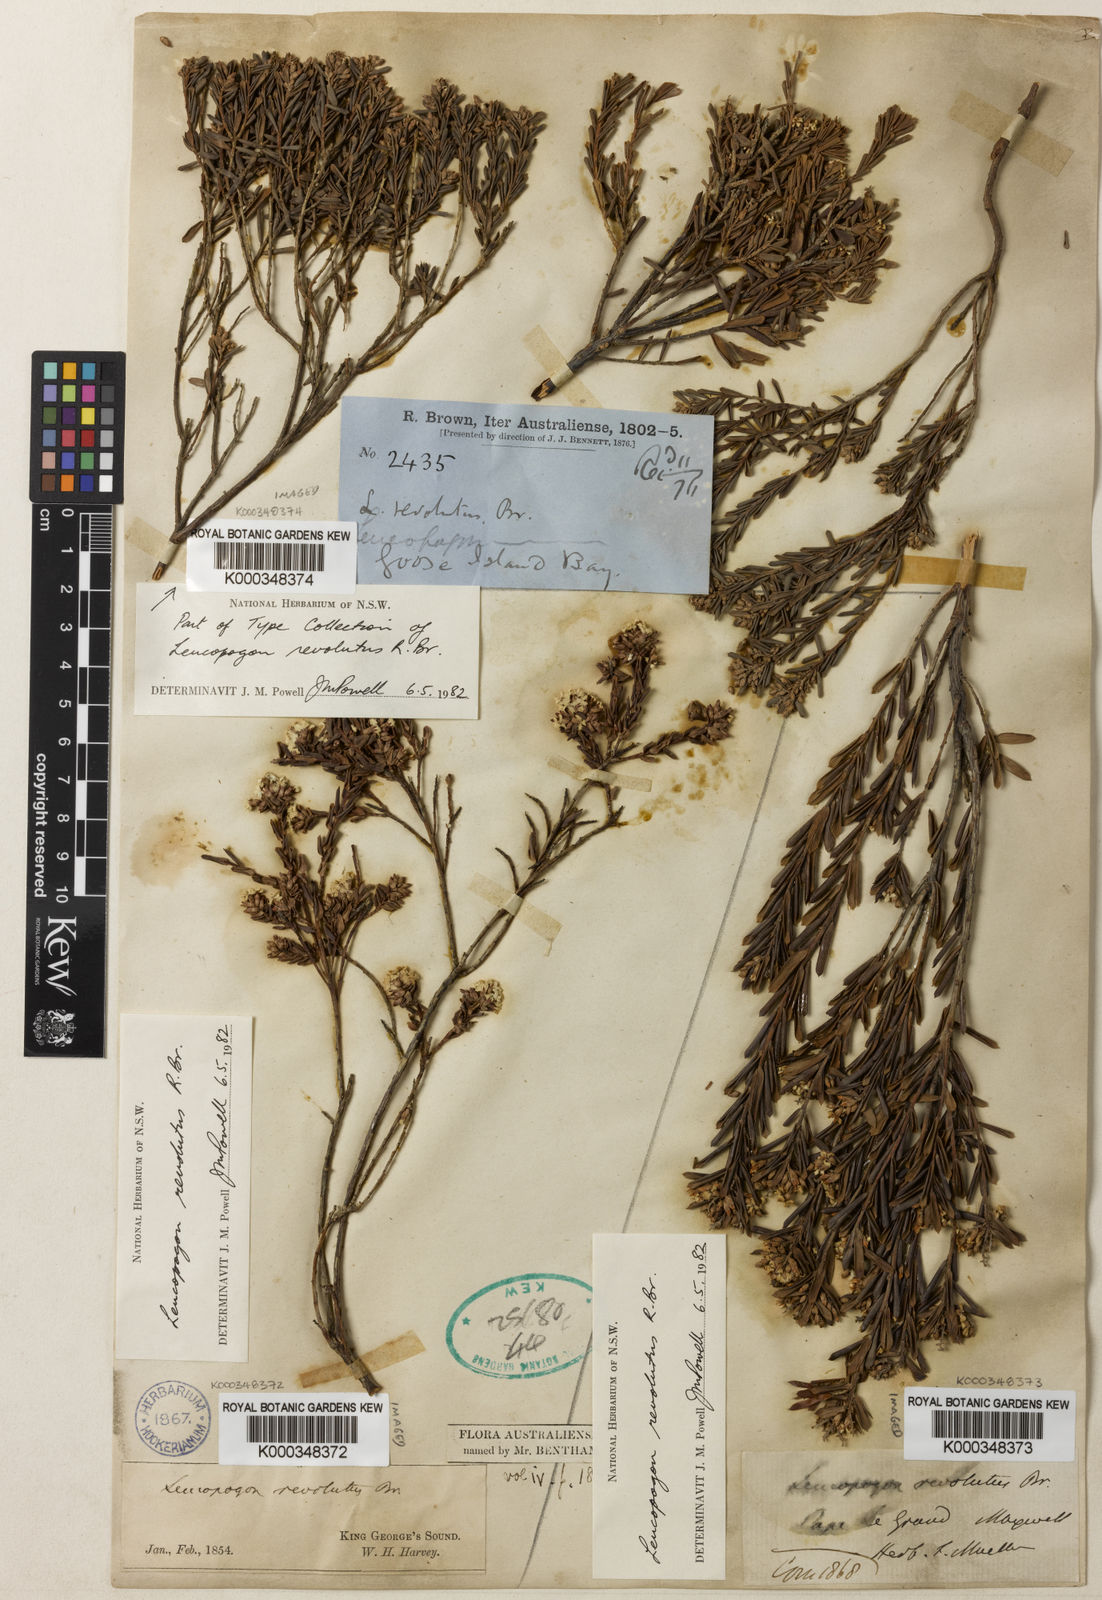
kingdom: Plantae
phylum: Tracheophyta
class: Magnoliopsida
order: Ericales
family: Ericaceae
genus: Leucopogon
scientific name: Leucopogon obovatus
